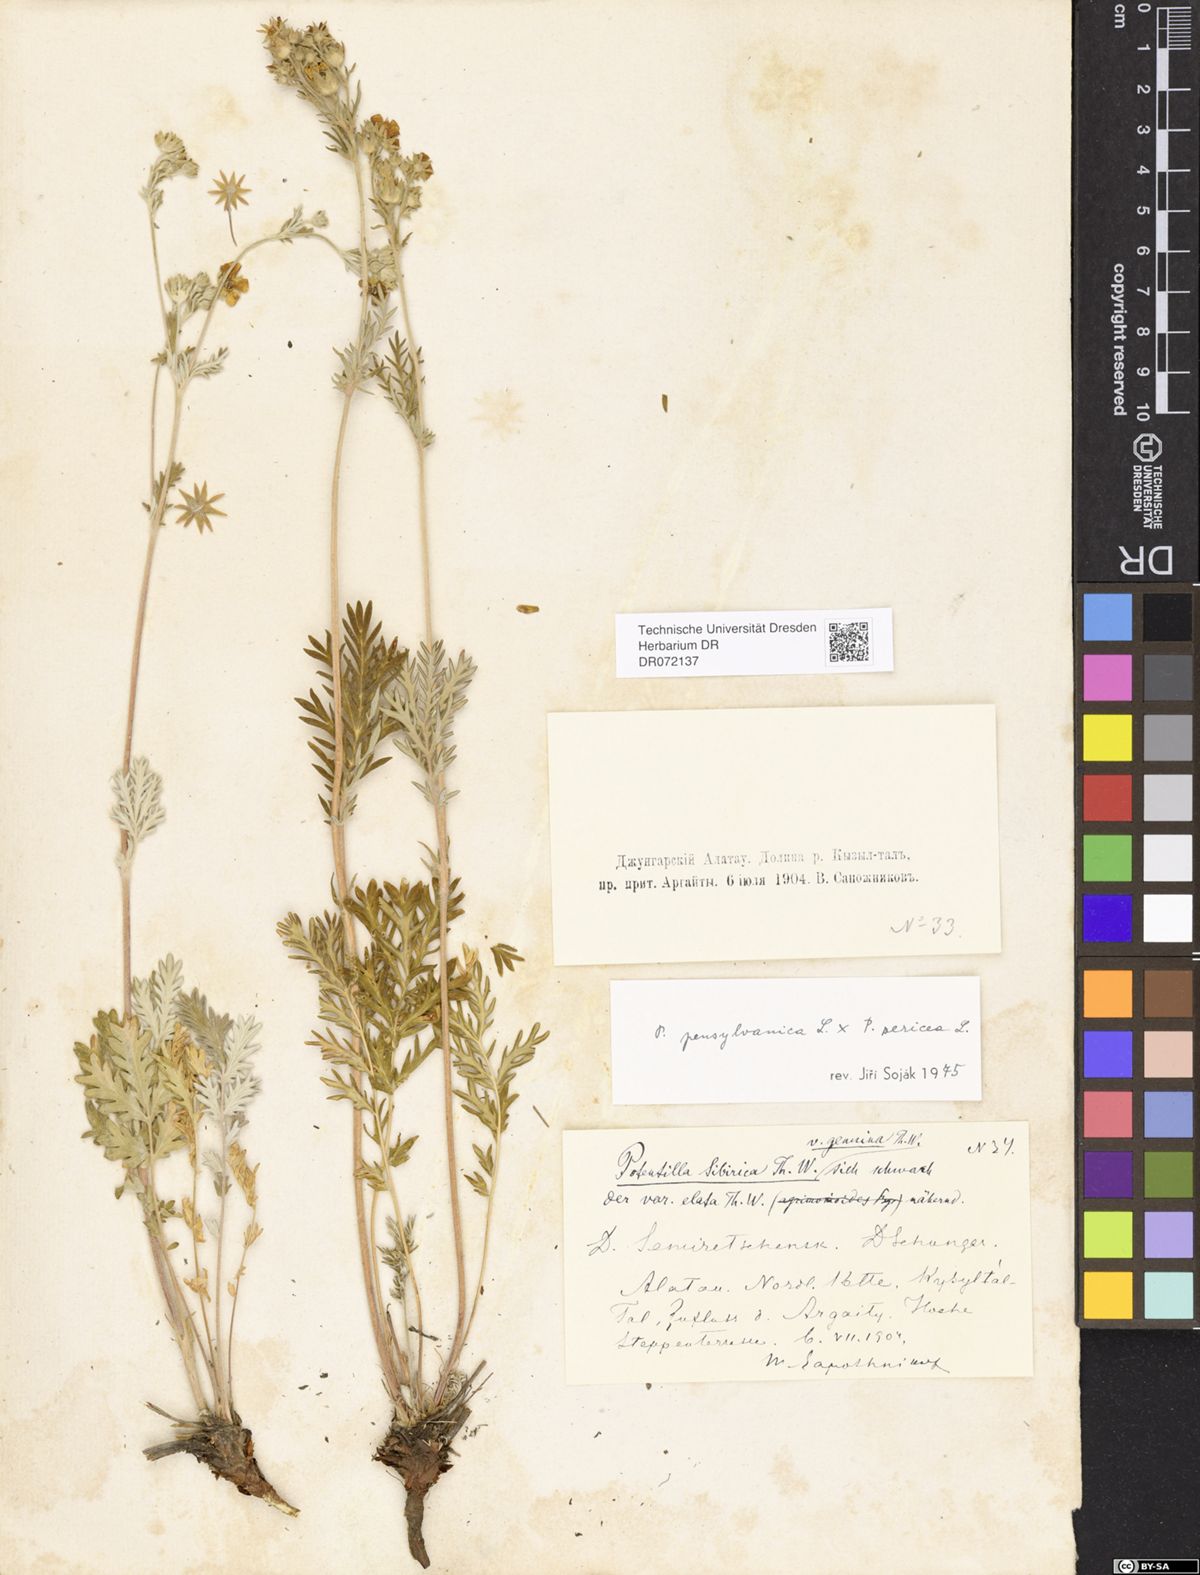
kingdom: Plantae
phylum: Tracheophyta
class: Magnoliopsida
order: Rosales
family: Rosaceae
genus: Potentilla
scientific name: Potentilla
